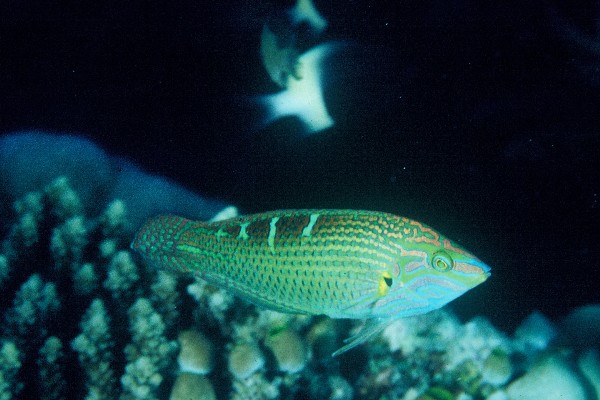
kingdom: Animalia
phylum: Chordata
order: Perciformes
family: Labridae
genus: Halichoeres
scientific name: Halichoeres melanurus
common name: Hoeven's wrasse
